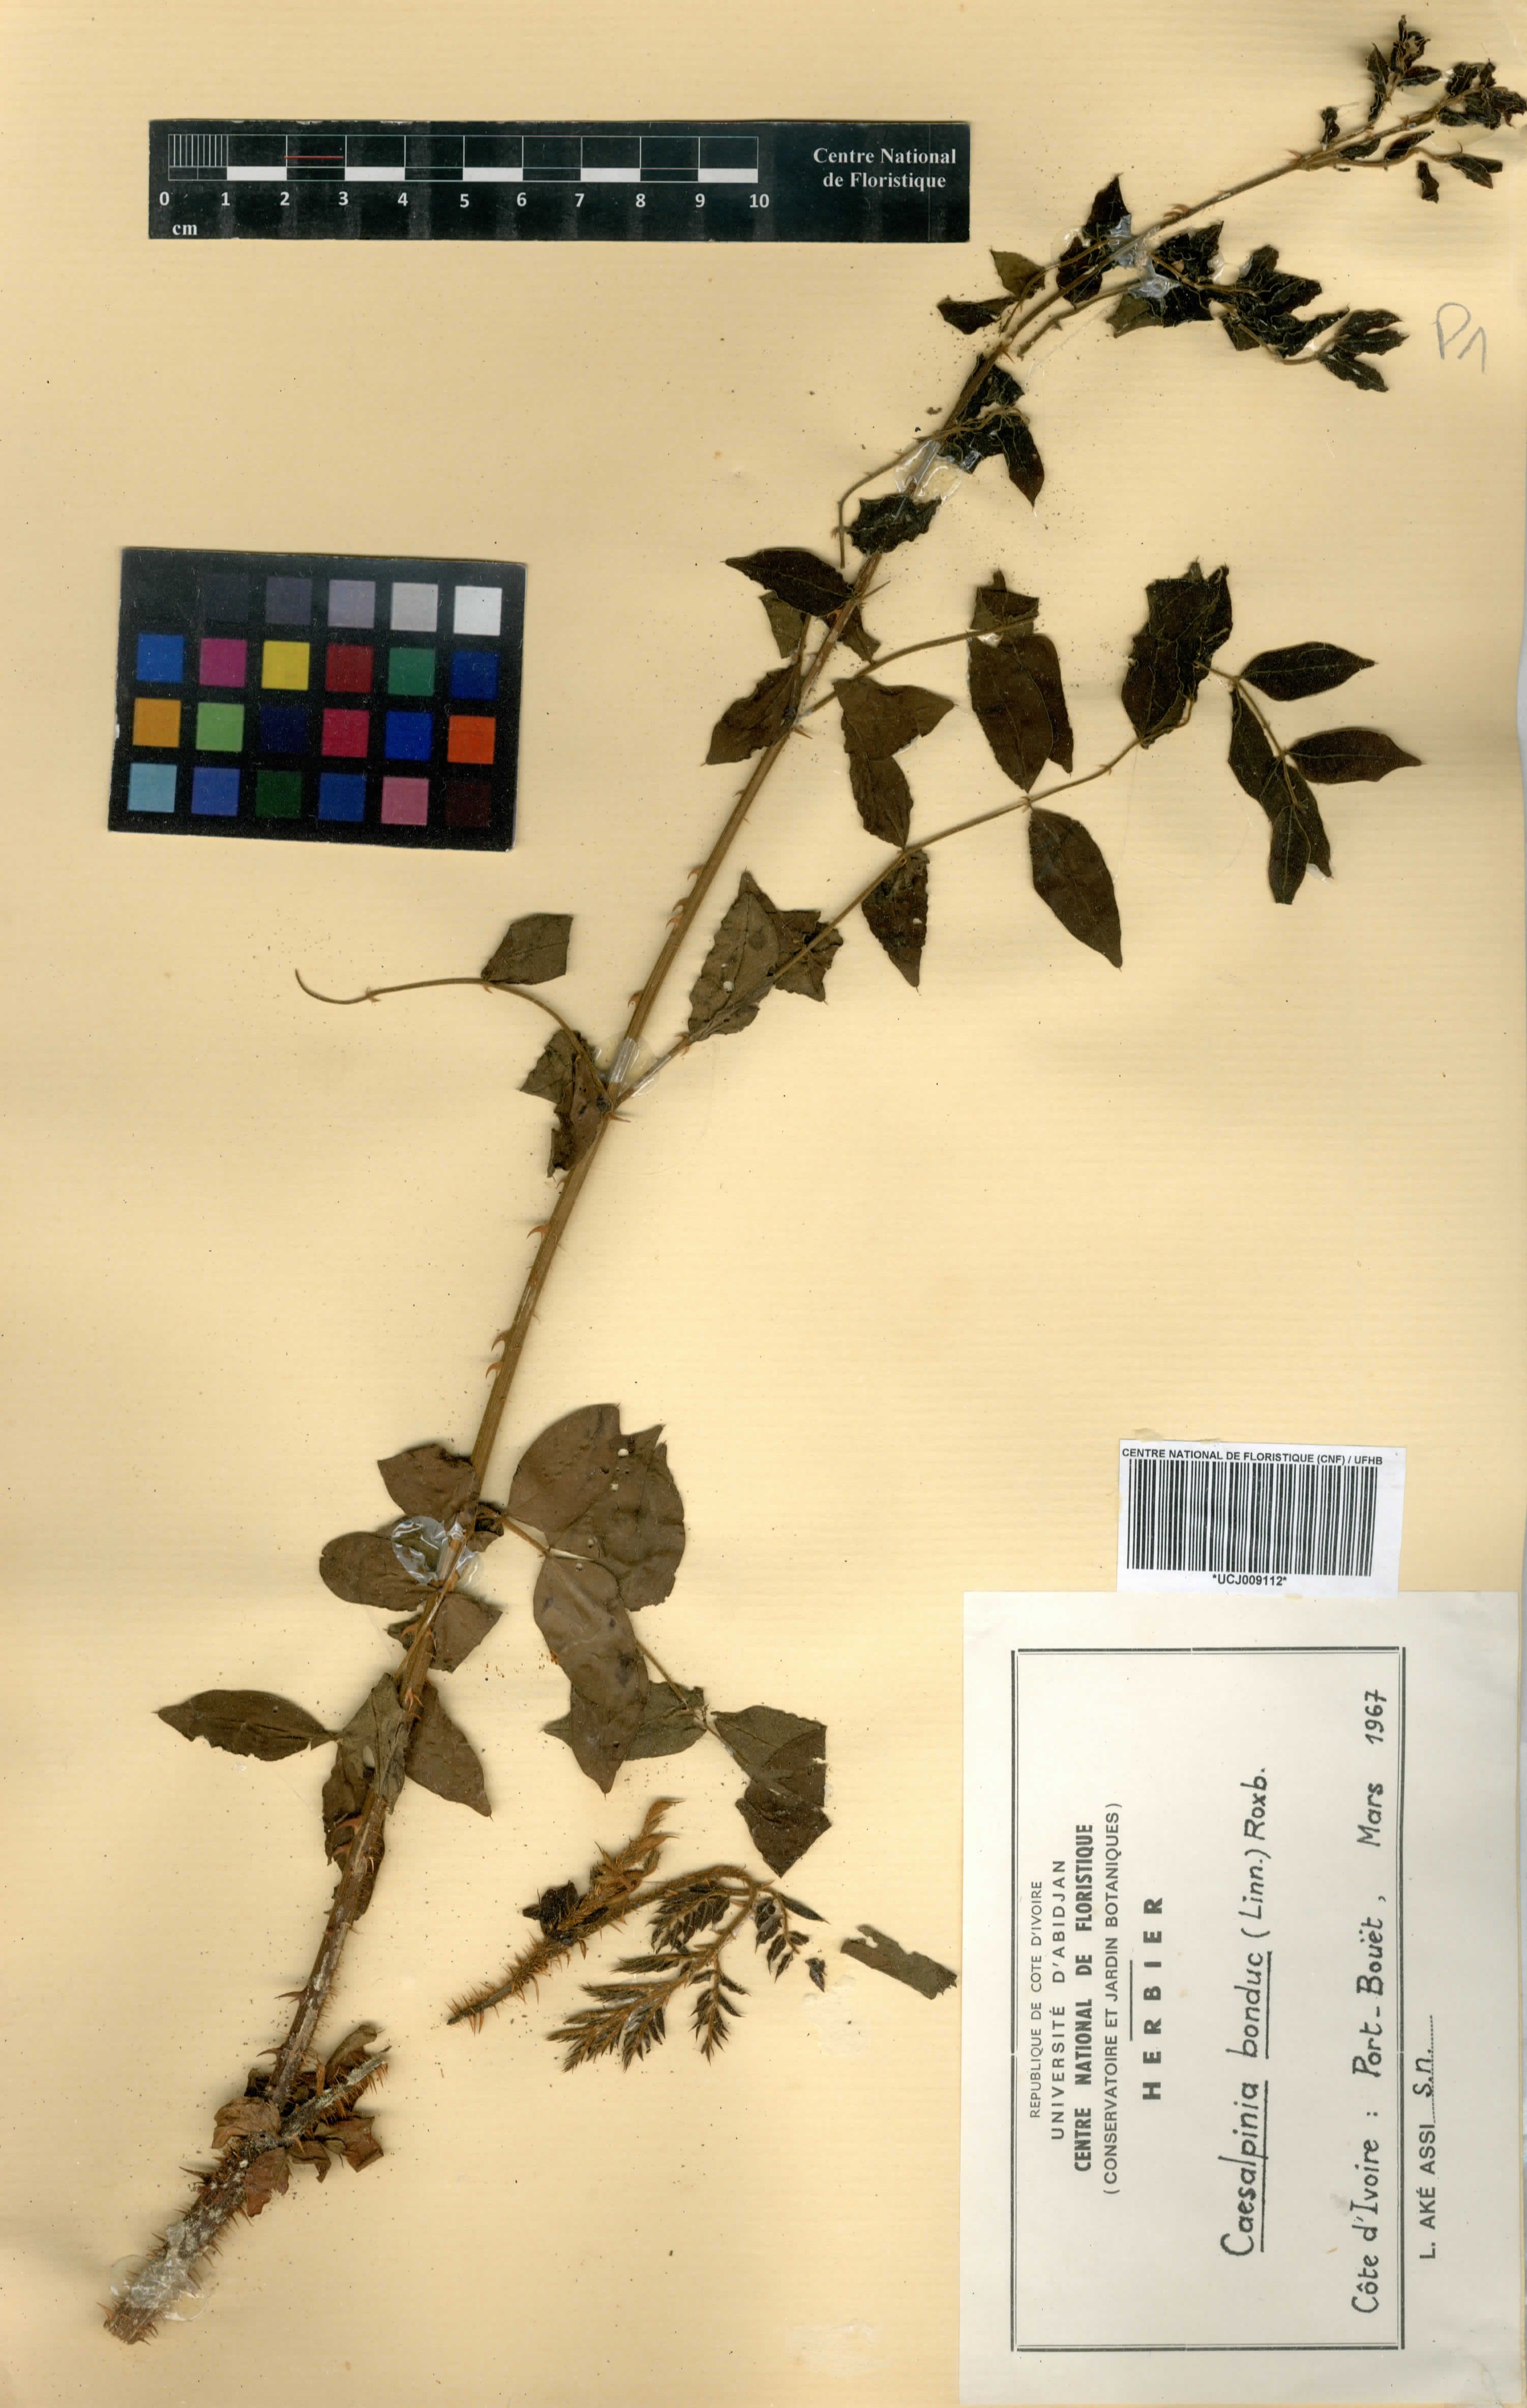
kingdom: Plantae
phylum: Tracheophyta
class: Magnoliopsida
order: Fabales
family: Fabaceae
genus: Guilandina
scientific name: Guilandina bonduc
